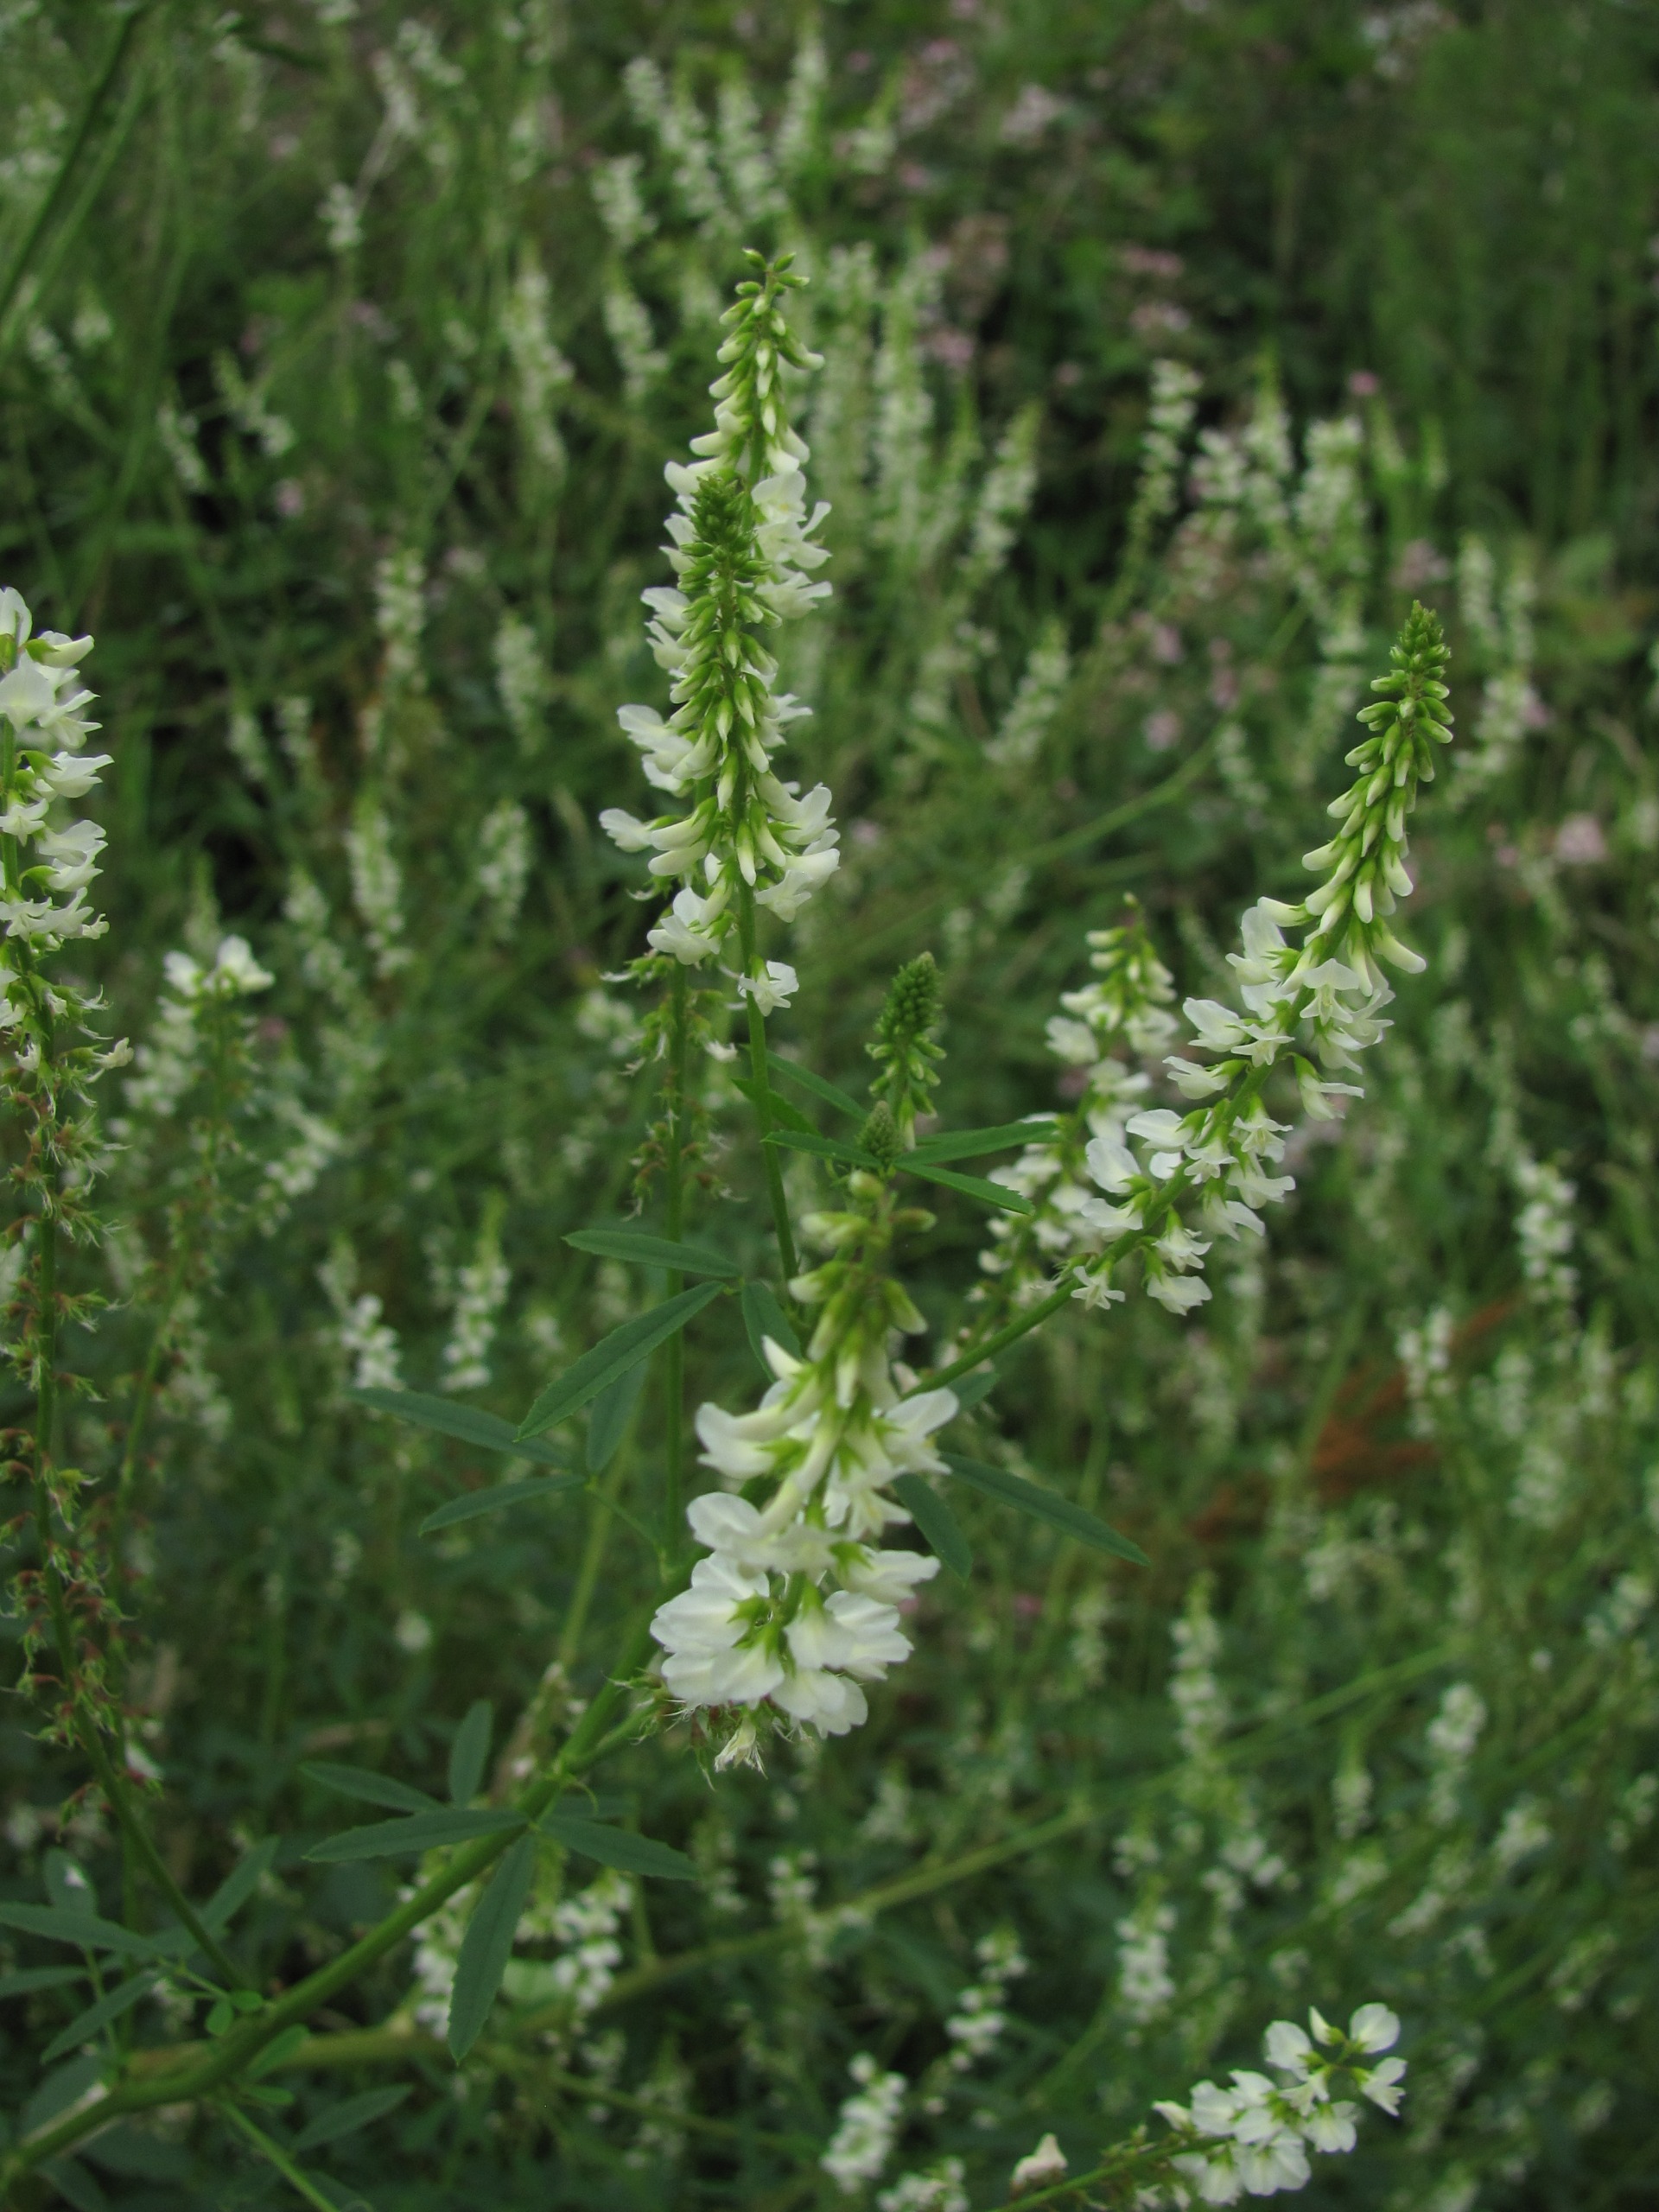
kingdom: Plantae
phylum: Tracheophyta
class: Magnoliopsida
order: Fabales
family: Fabaceae
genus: Melilotus
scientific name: Melilotus albus
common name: Hvid stenkløver
